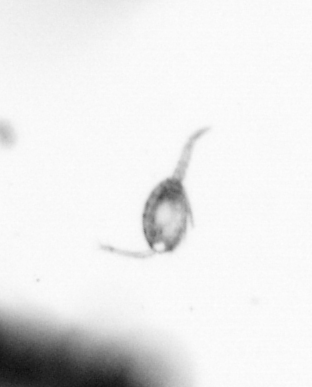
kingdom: Animalia
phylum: Arthropoda
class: Copepoda
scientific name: Copepoda
